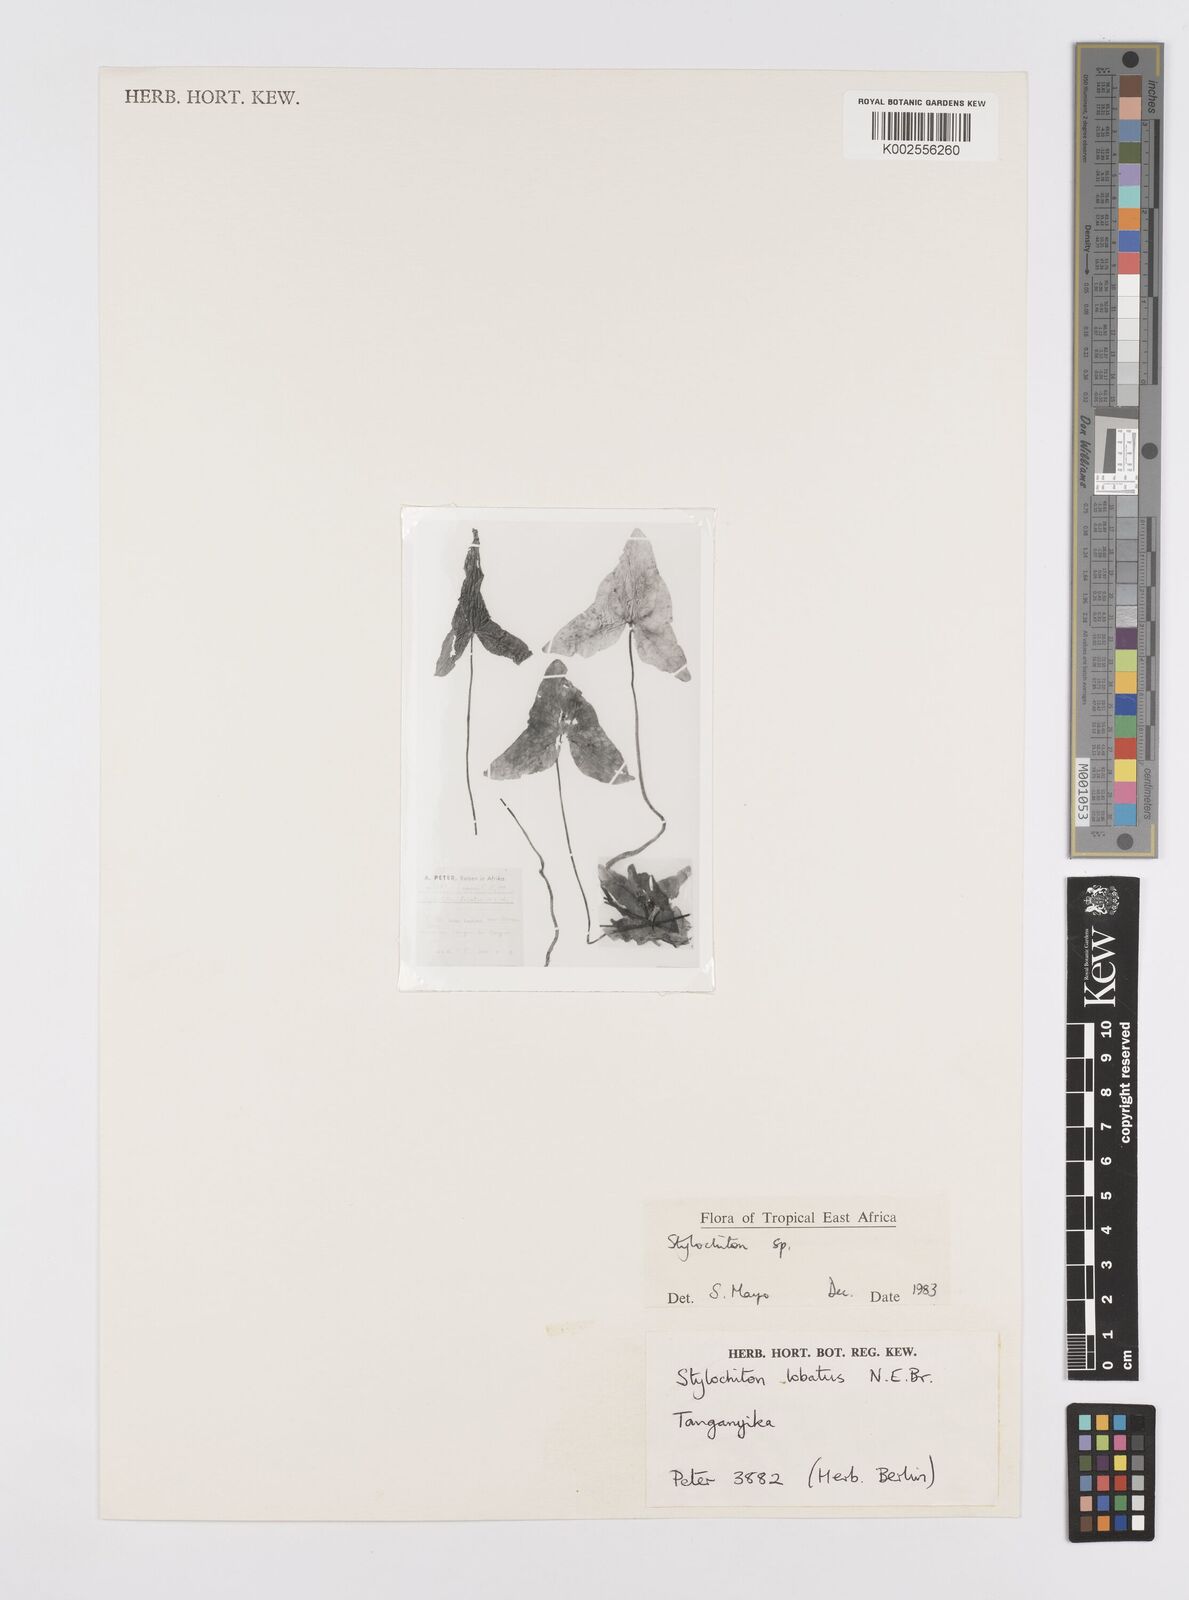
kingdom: Plantae
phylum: Tracheophyta
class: Liliopsida
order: Alismatales
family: Araceae
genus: Stylochaeton
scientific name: Stylochaeton lancifolium
